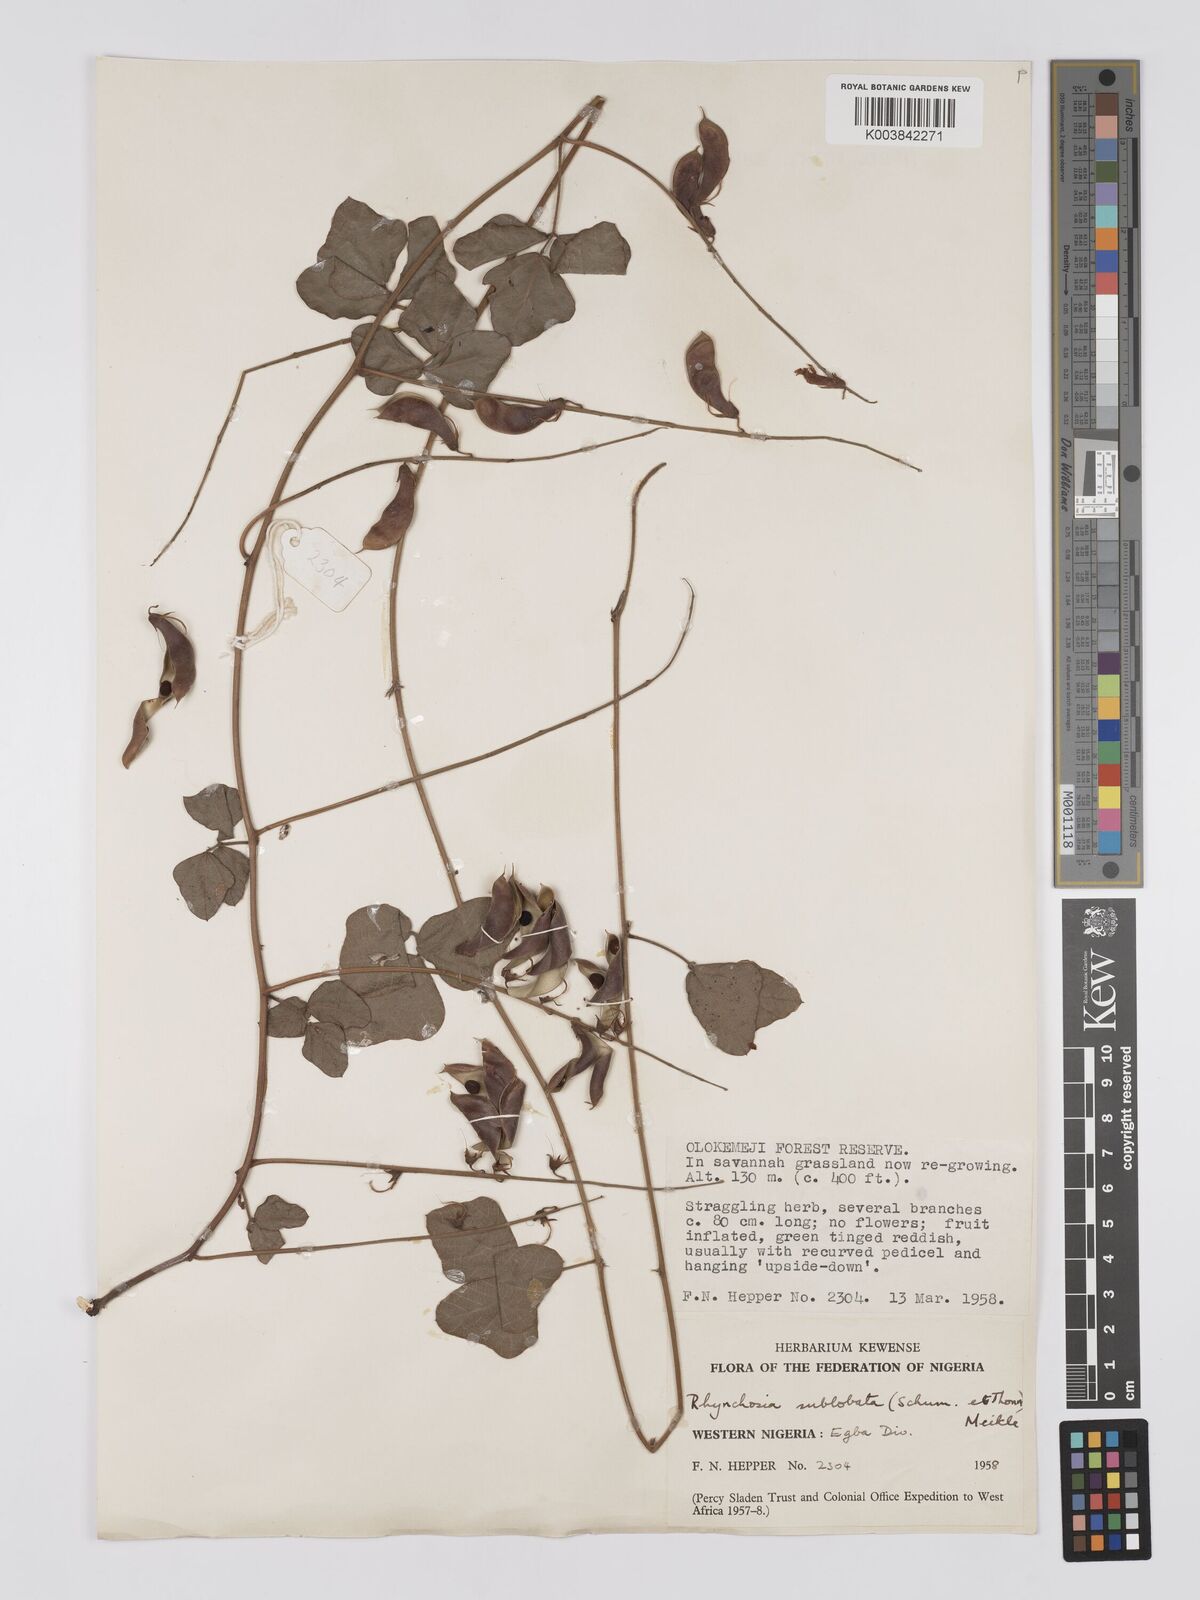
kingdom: Plantae
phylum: Tracheophyta
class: Magnoliopsida
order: Fabales
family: Fabaceae
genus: Rhynchosia
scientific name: Rhynchosia sublobata
